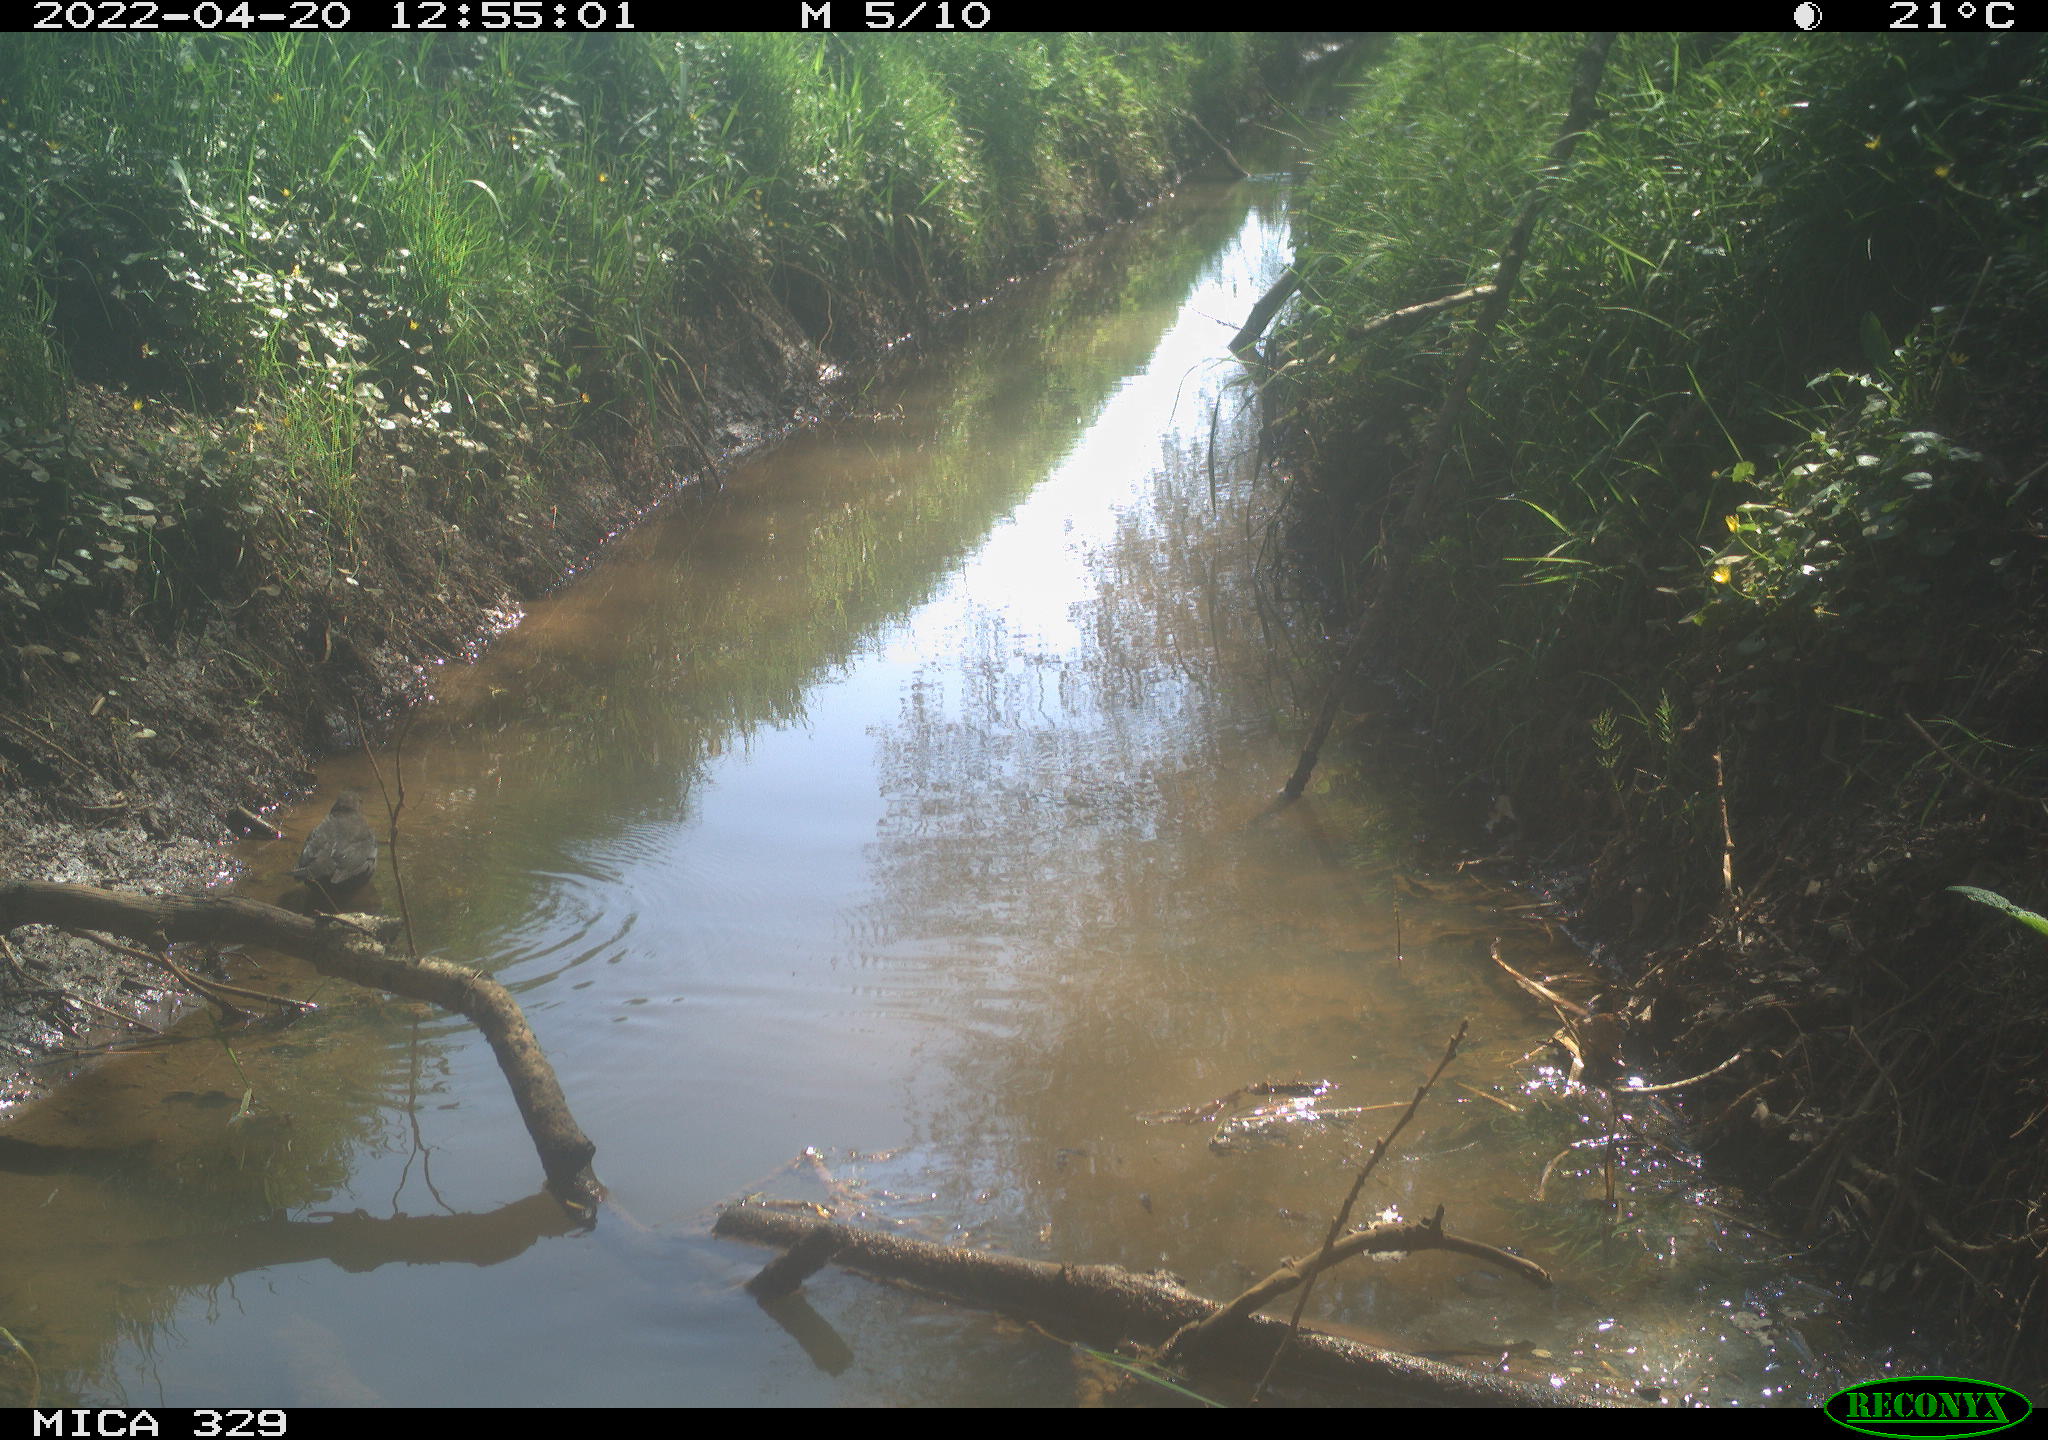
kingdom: Animalia
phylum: Chordata
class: Aves
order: Passeriformes
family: Turdidae
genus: Turdus
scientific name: Turdus merula
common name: Common blackbird
